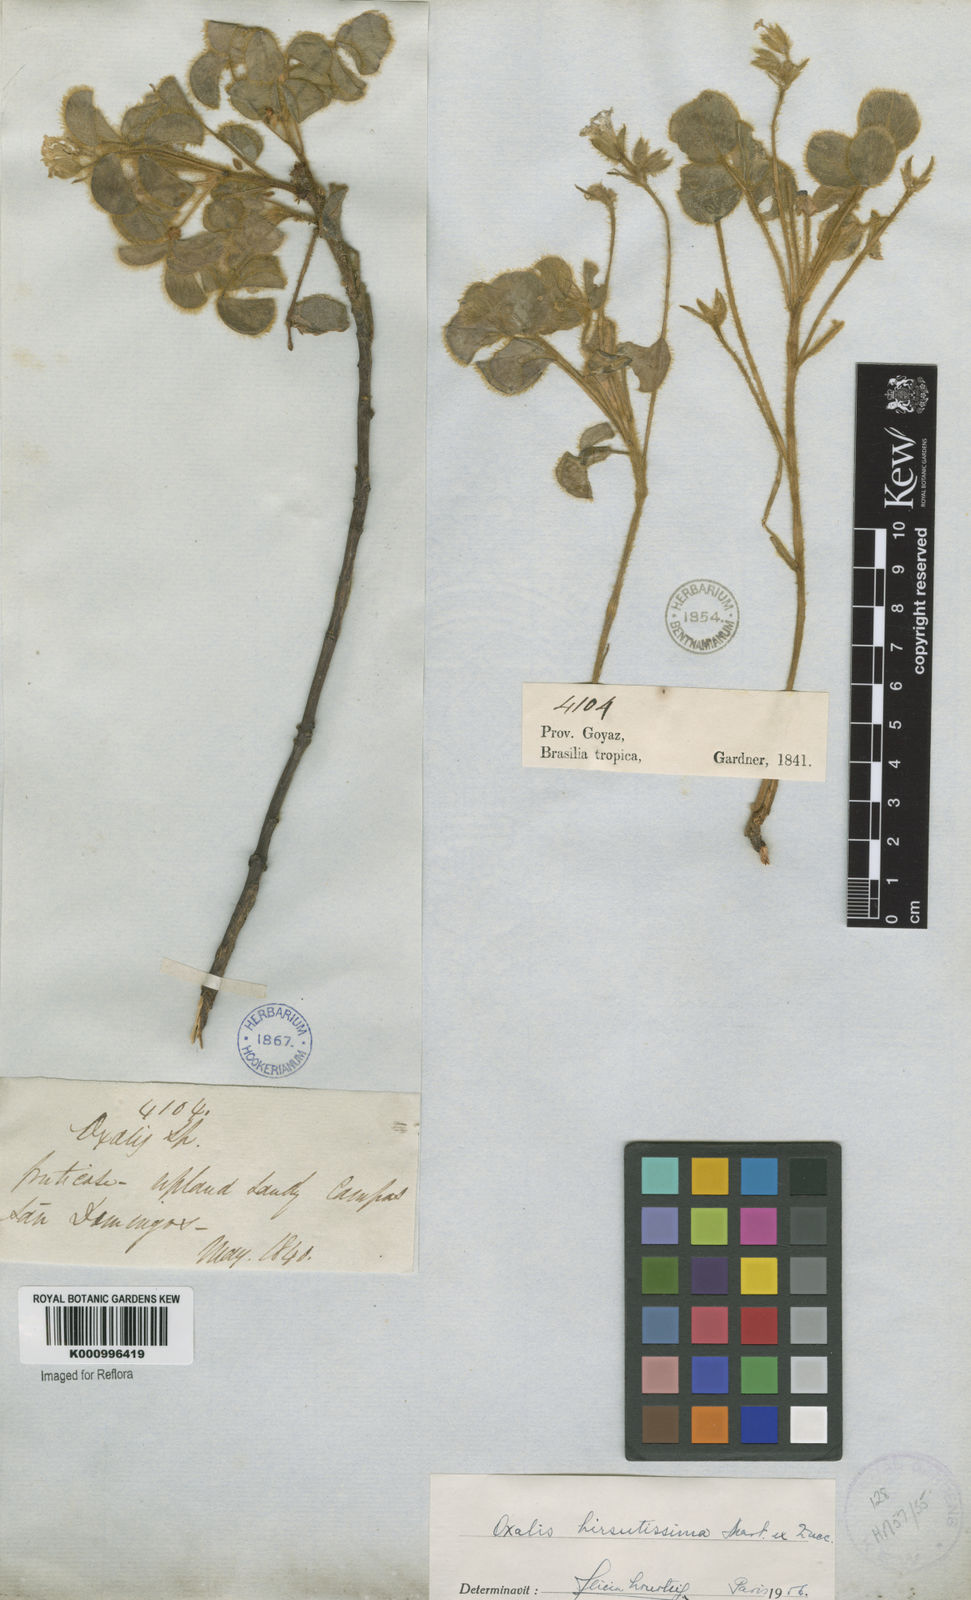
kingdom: Plantae
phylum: Tracheophyta
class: Magnoliopsida
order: Oxalidales
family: Oxalidaceae
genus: Oxalis
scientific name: Oxalis hirsutissima
